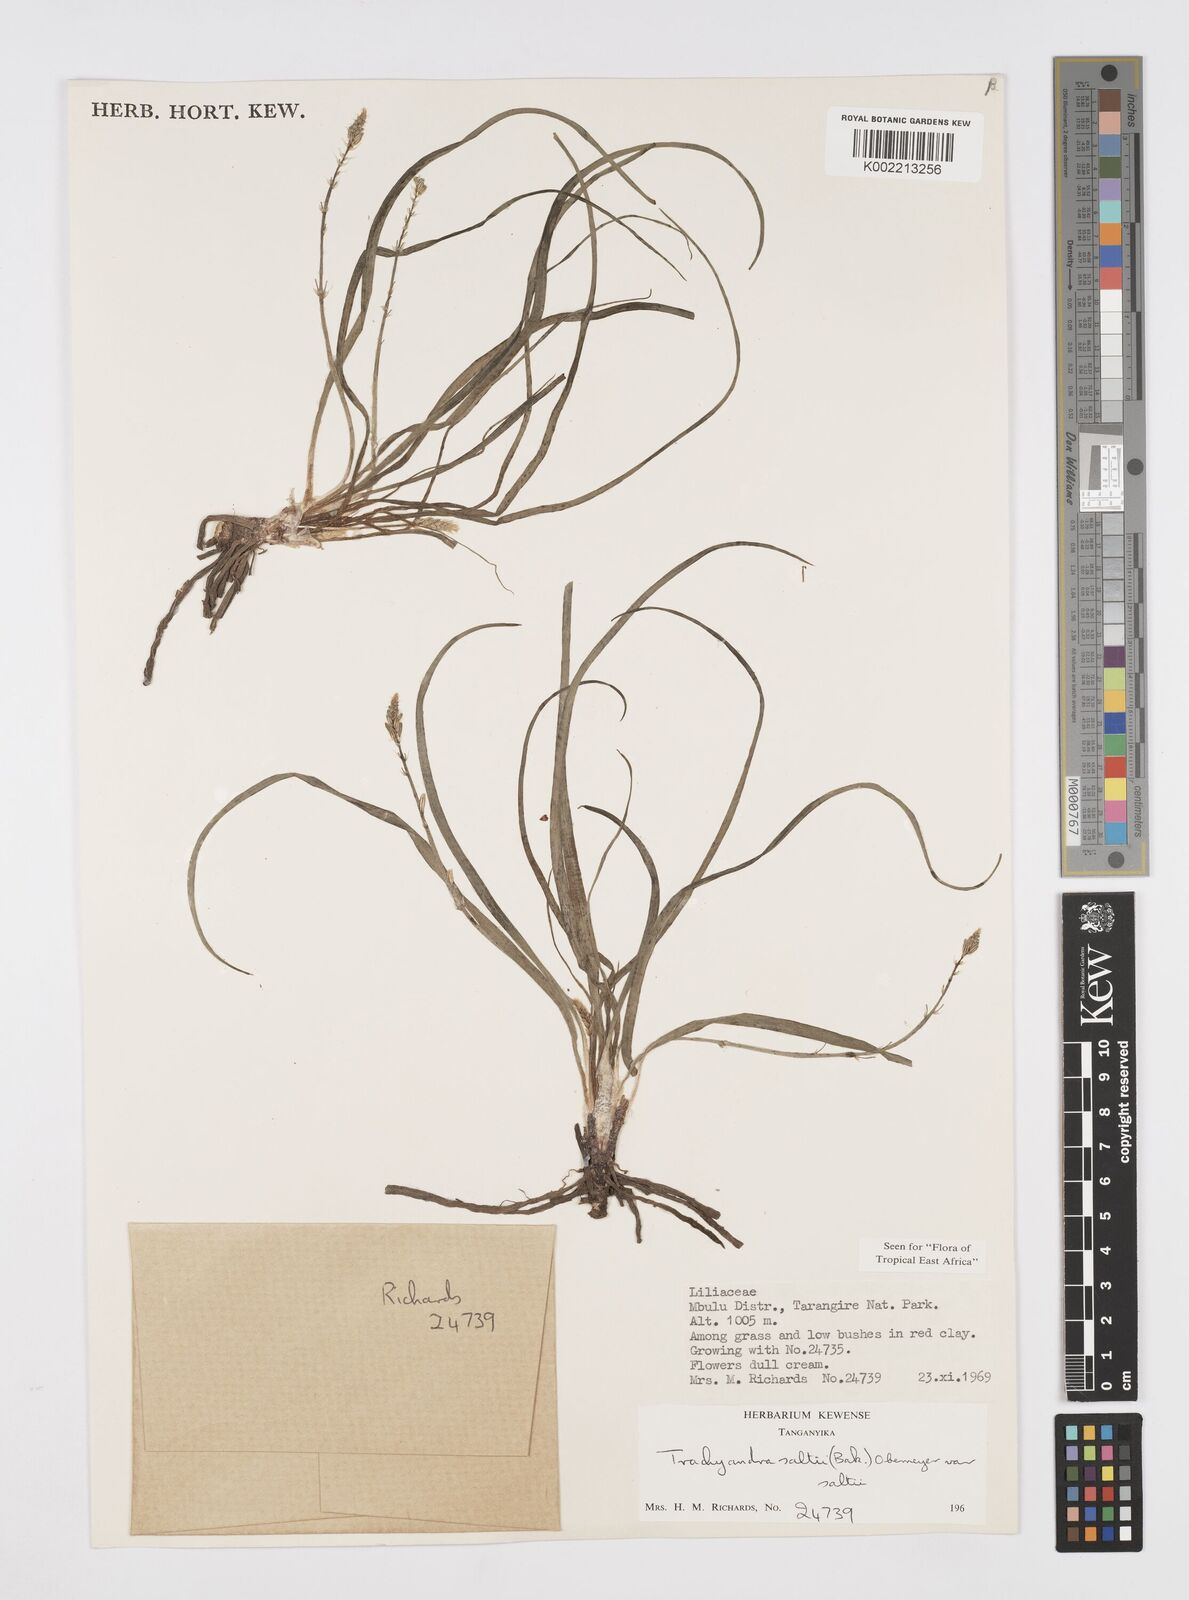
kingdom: Plantae
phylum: Tracheophyta
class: Liliopsida
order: Asparagales
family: Asphodelaceae
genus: Trachyandra
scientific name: Trachyandra saltii
